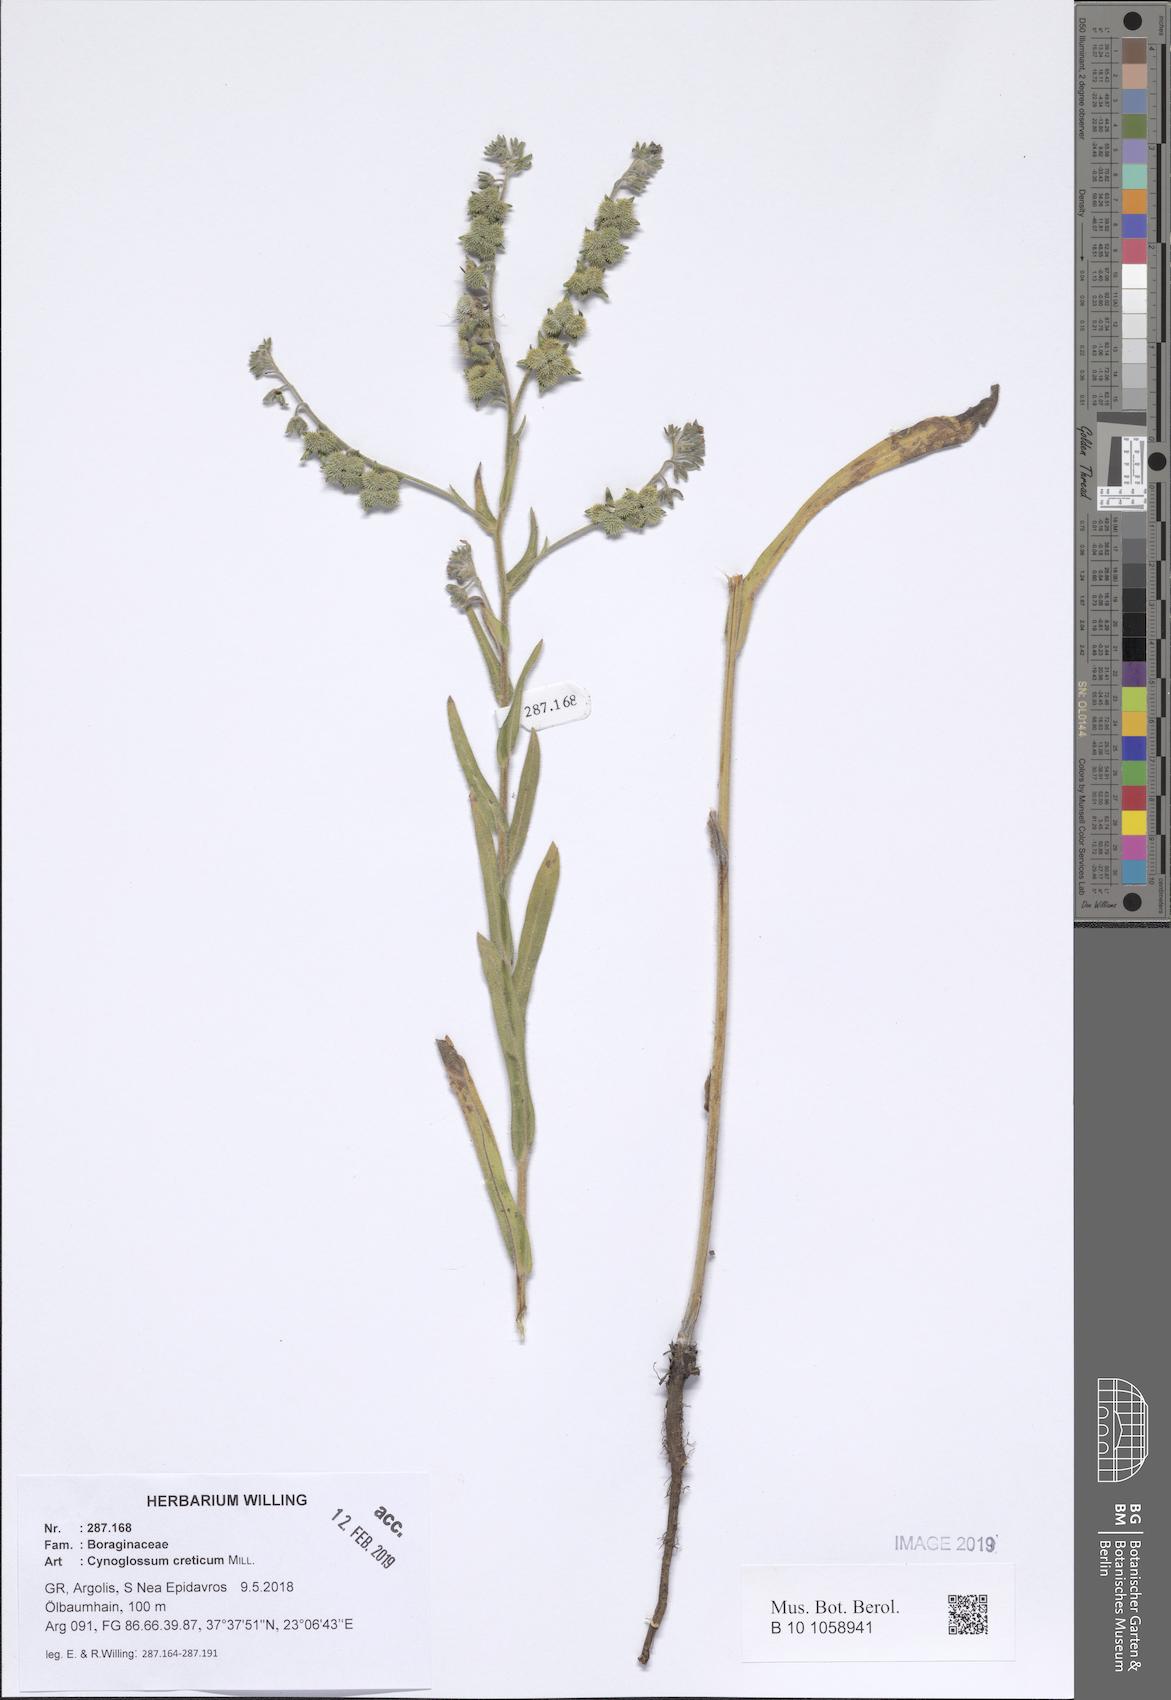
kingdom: Plantae
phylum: Tracheophyta
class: Magnoliopsida
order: Boraginales
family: Boraginaceae
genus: Cynoglossum
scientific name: Cynoglossum creticum
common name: Blue hound's tongue
